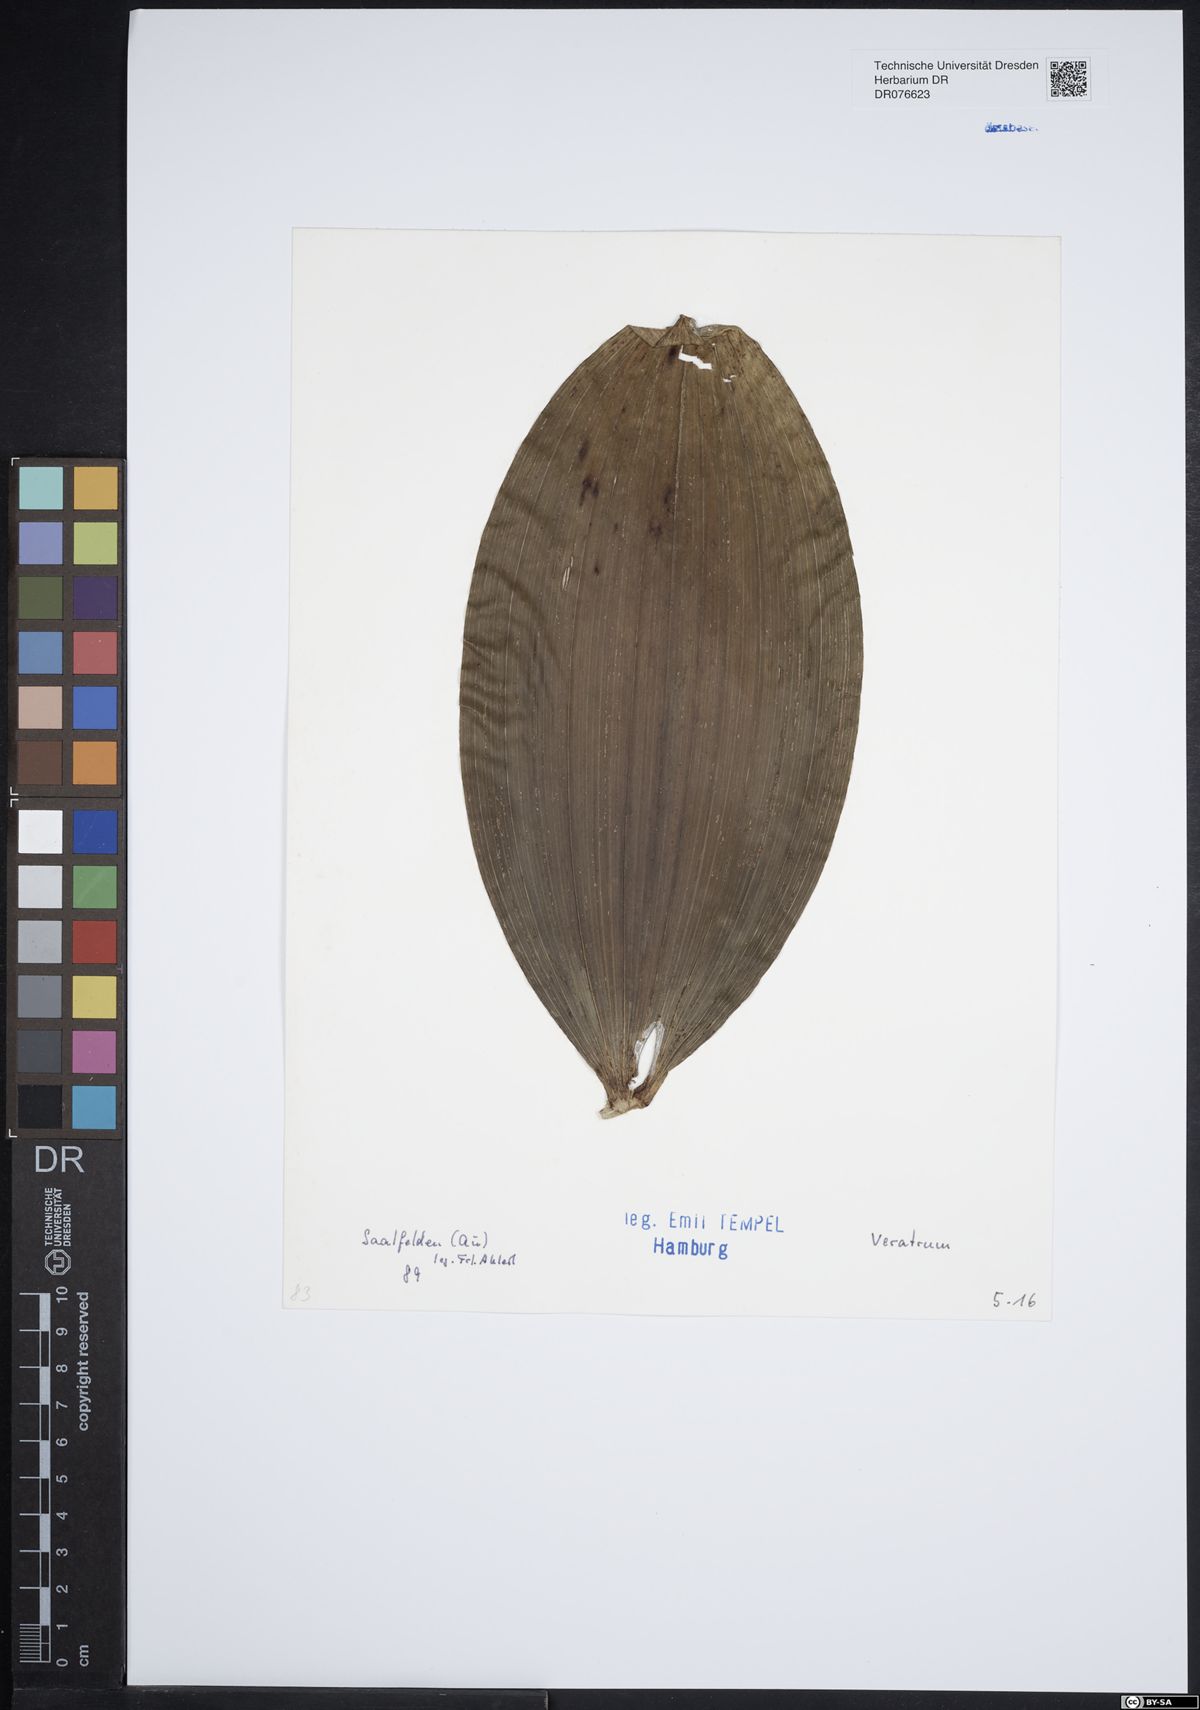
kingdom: Plantae
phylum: Tracheophyta
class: Liliopsida
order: Liliales
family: Melanthiaceae
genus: Veratrum
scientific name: Veratrum
